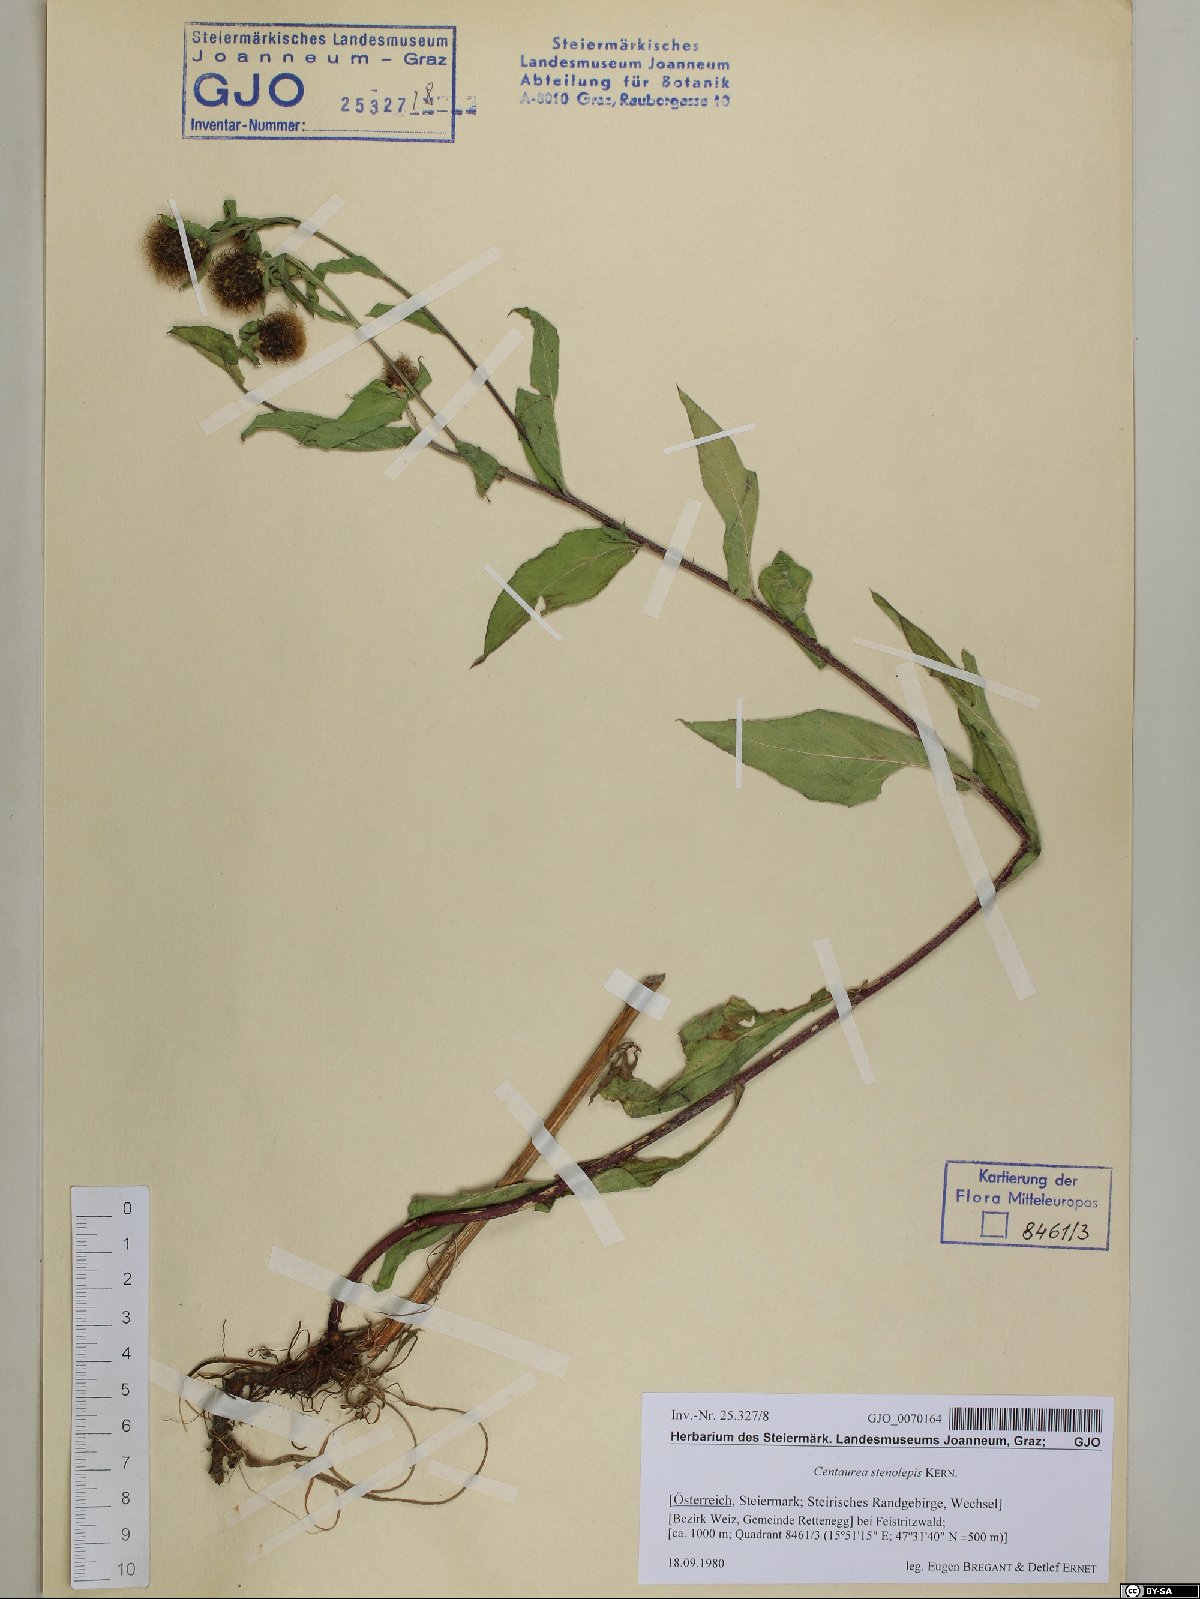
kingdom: Plantae
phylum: Tracheophyta
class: Magnoliopsida
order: Asterales
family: Asteraceae
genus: Centaurea
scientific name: Centaurea stenolepis
